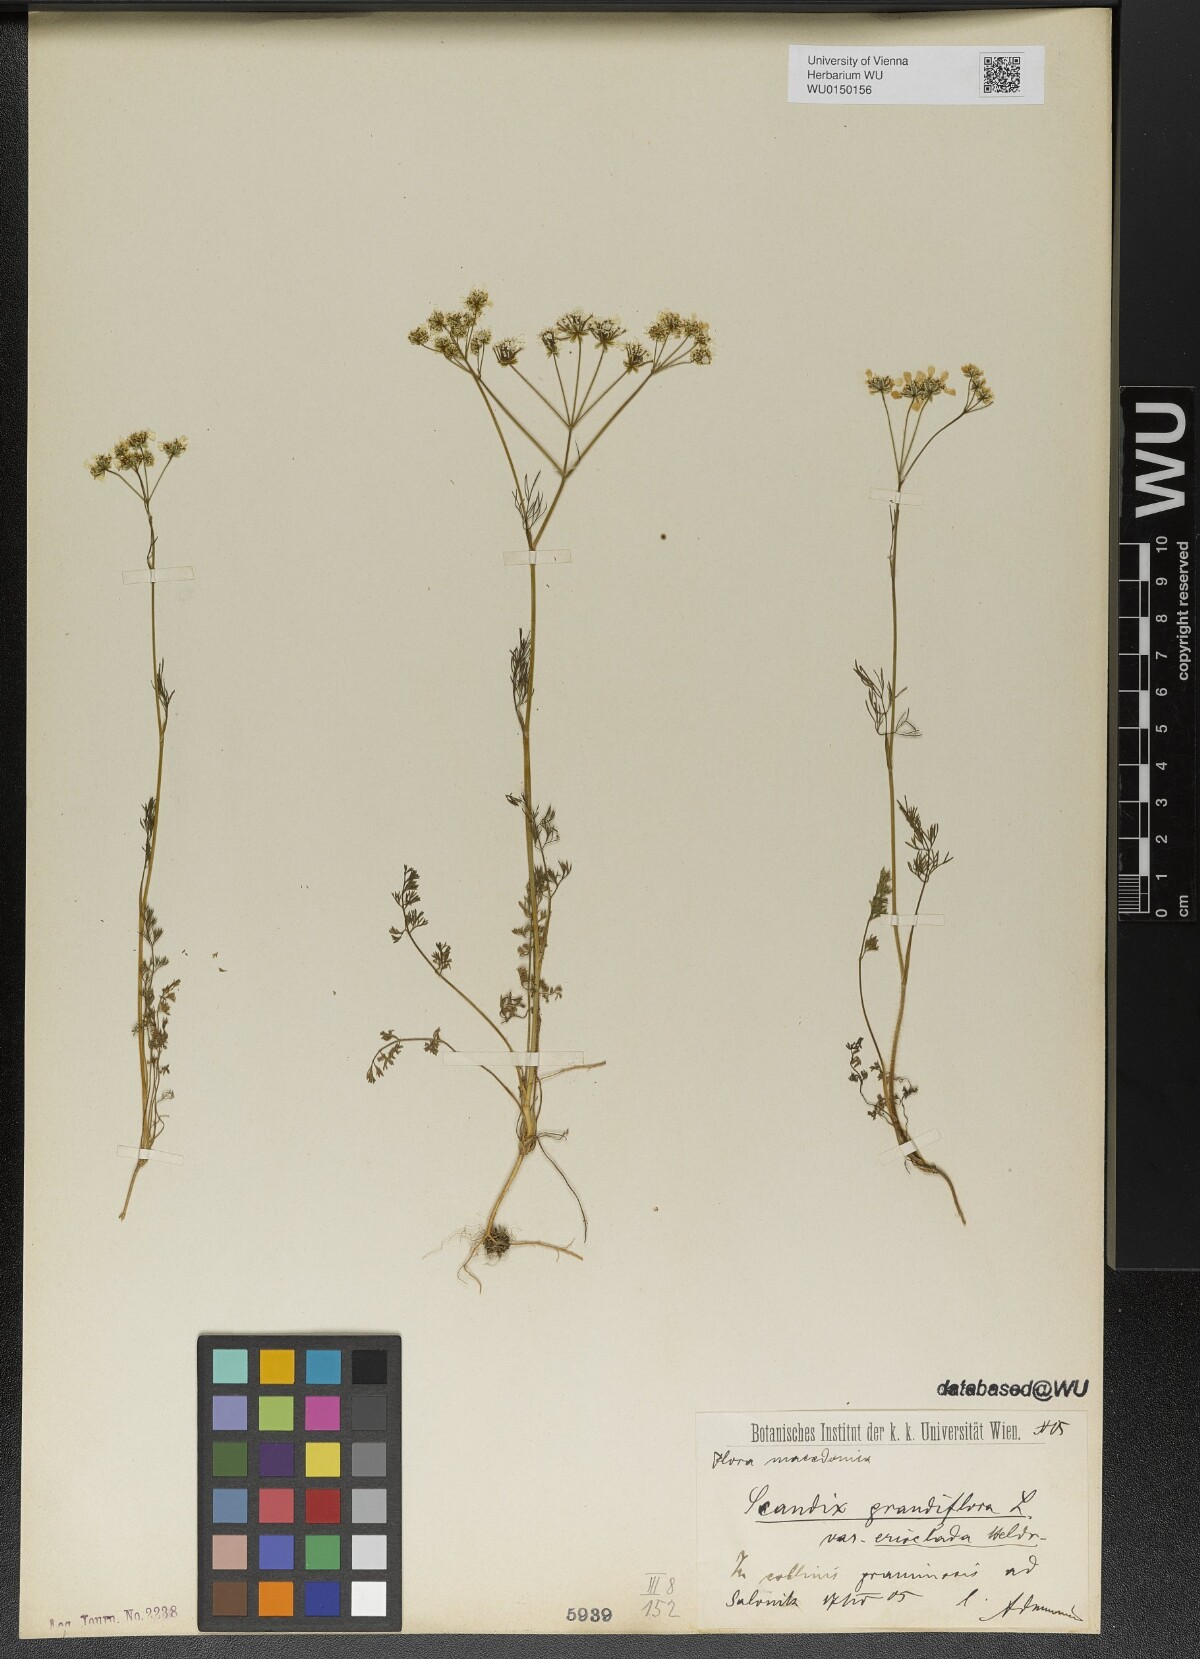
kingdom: Plantae
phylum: Tracheophyta
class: Magnoliopsida
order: Apiales
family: Apiaceae
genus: Scandix
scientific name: Scandix australis
